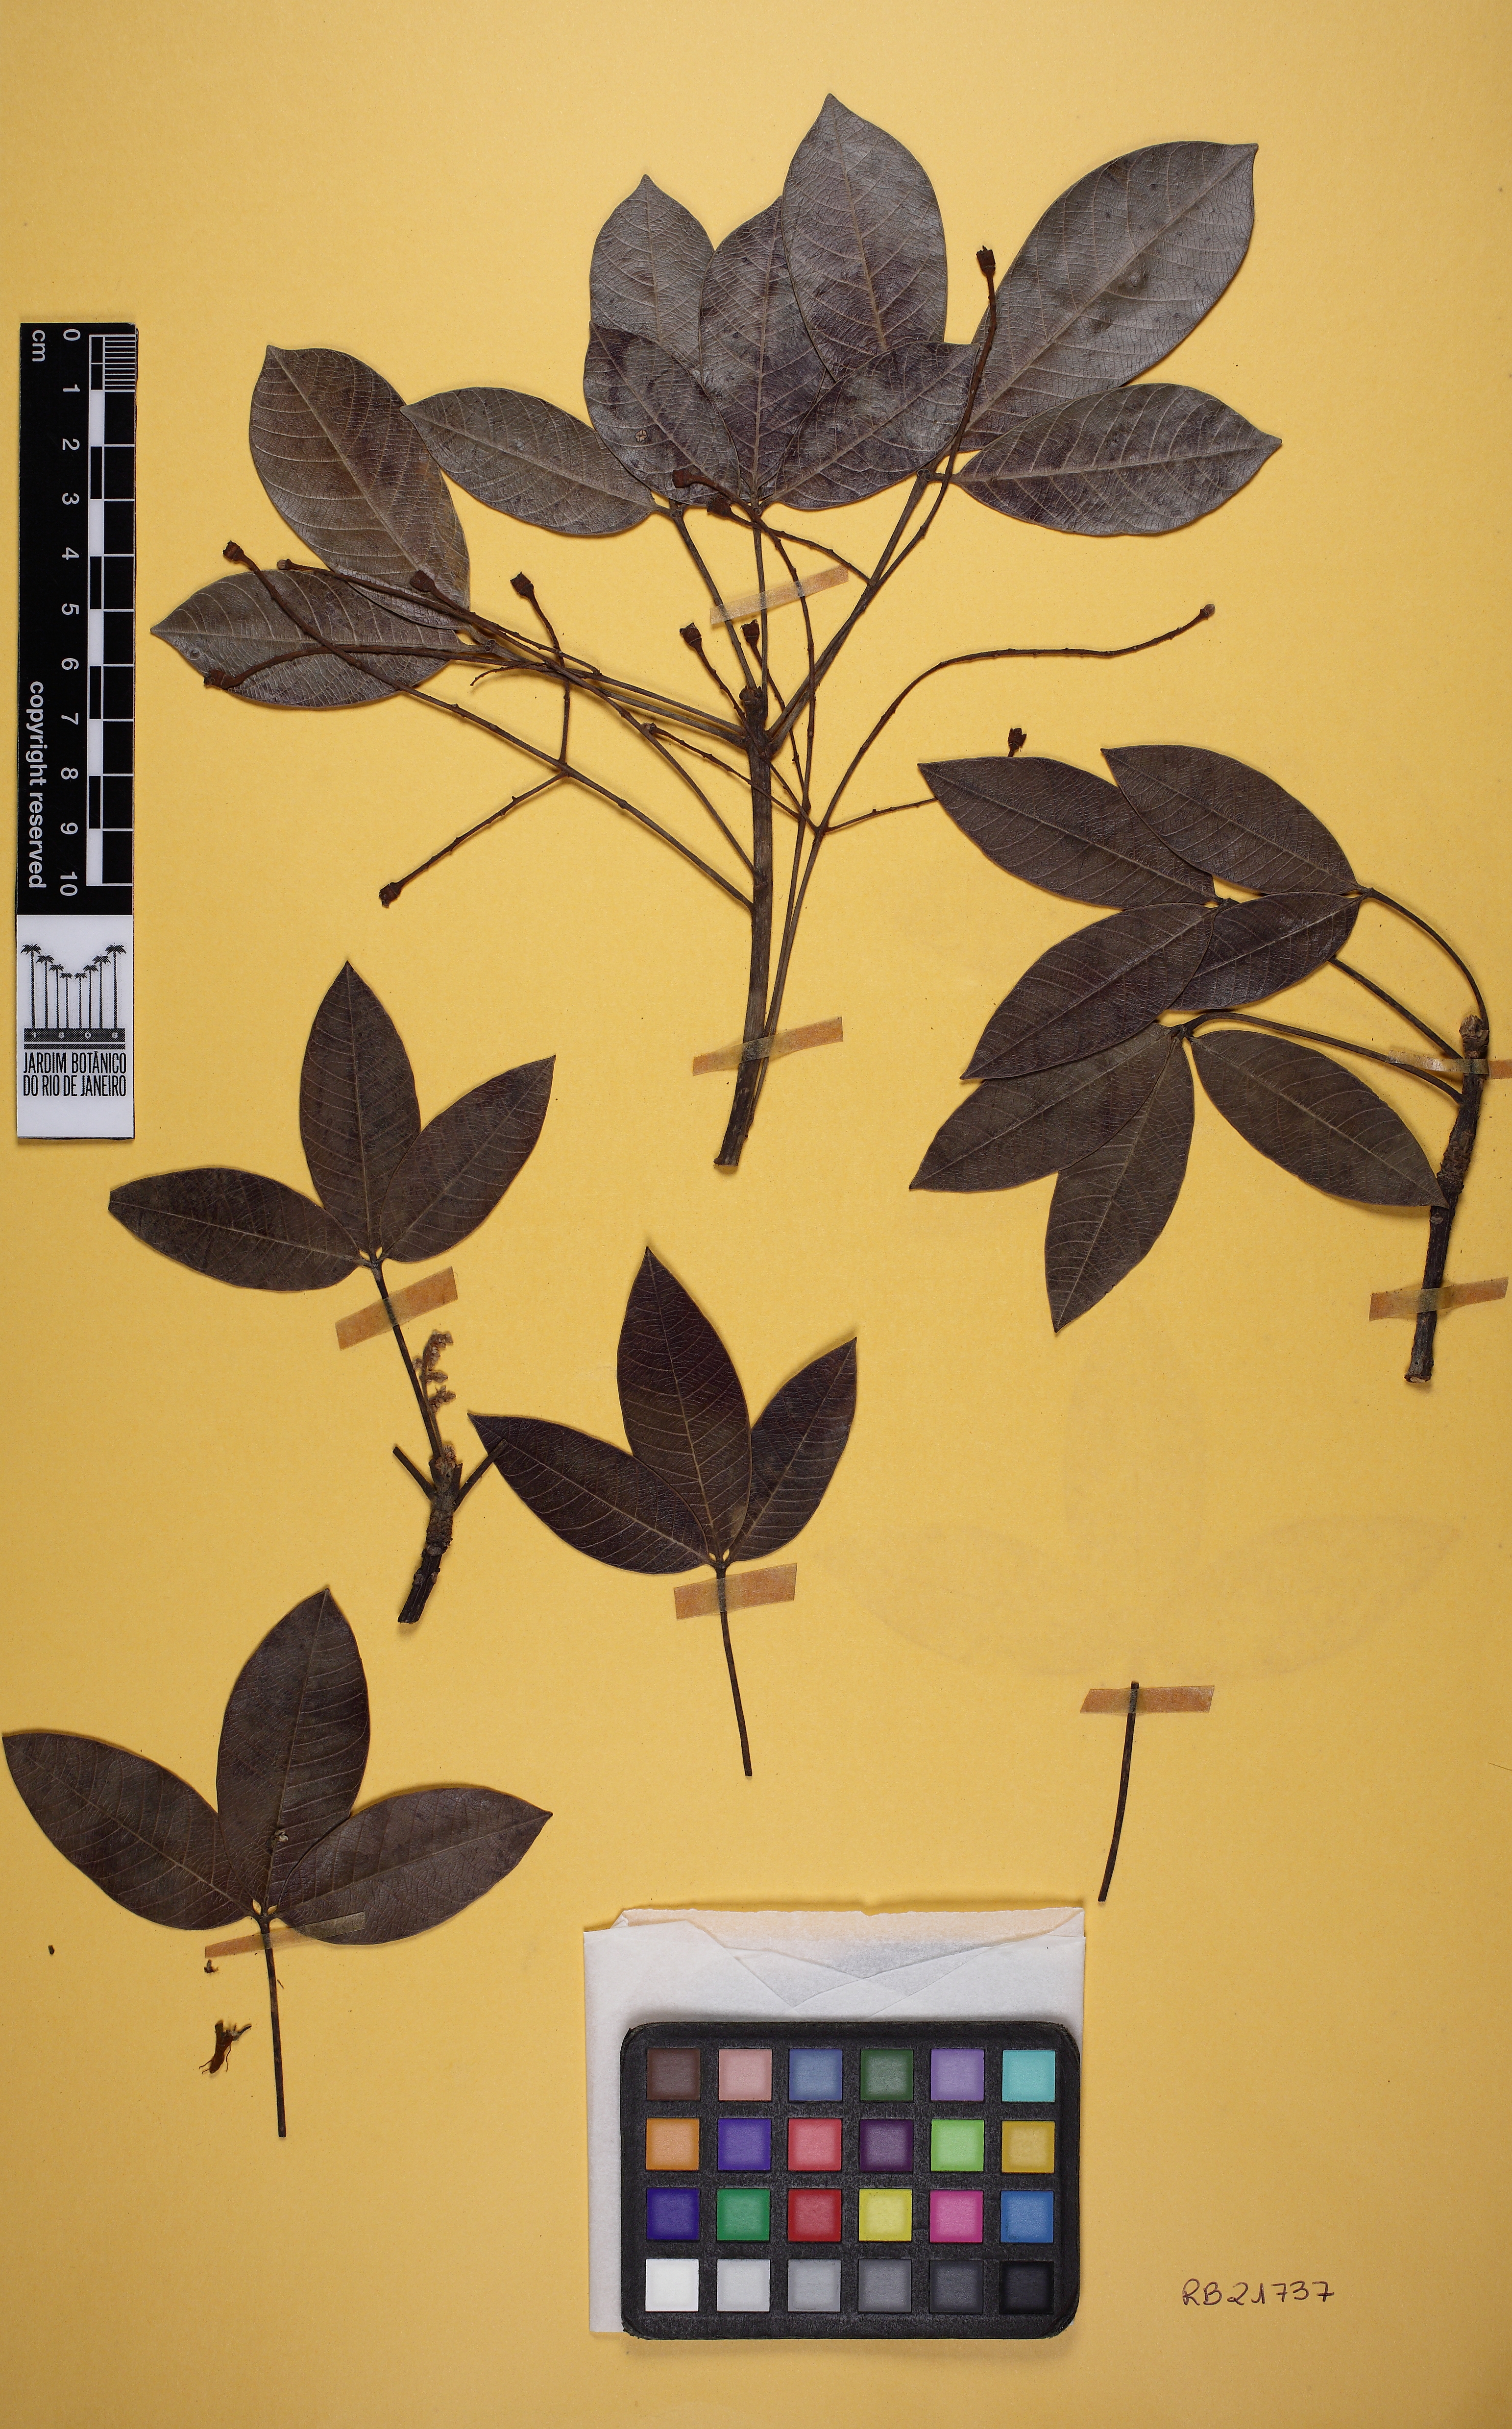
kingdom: Plantae
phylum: Tracheophyta
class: Magnoliopsida
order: Malpighiales
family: Euphorbiaceae
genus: Hevea
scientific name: Hevea benthamiana
